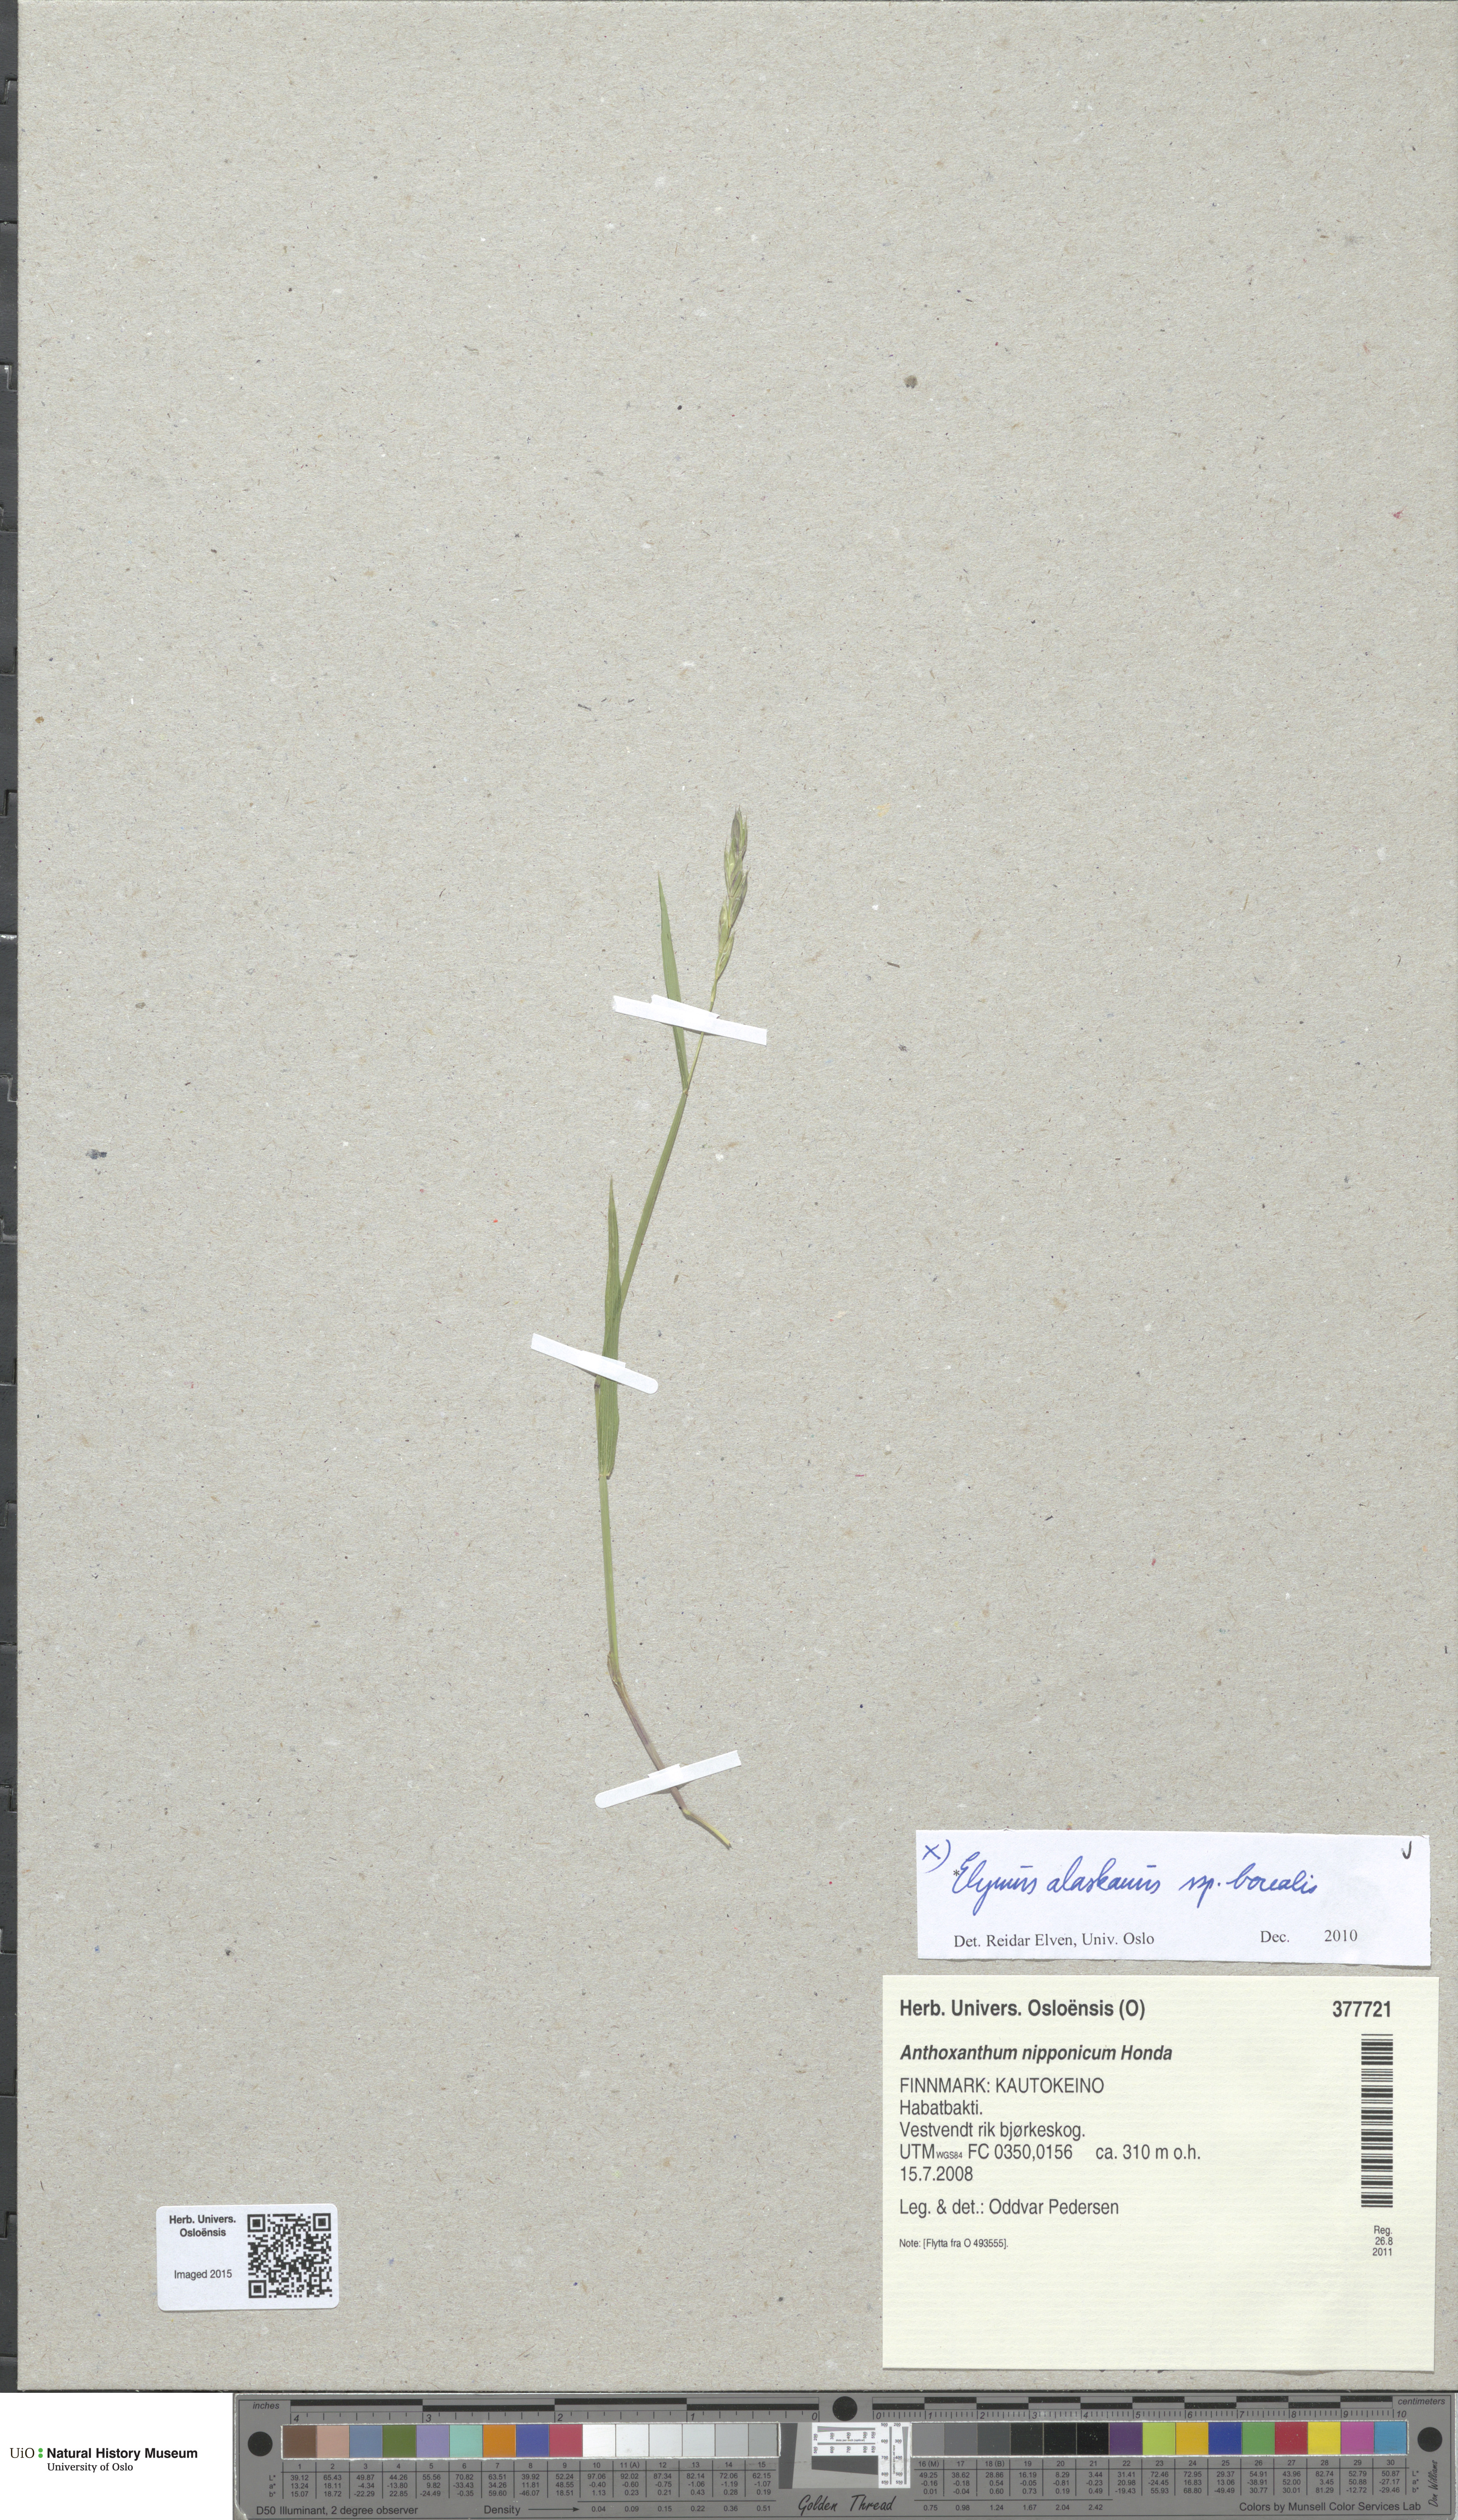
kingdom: Plantae
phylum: Tracheophyta
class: Liliopsida
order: Poales
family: Poaceae
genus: Elymus
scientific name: Elymus macrourus
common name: Northern wheatgrass
